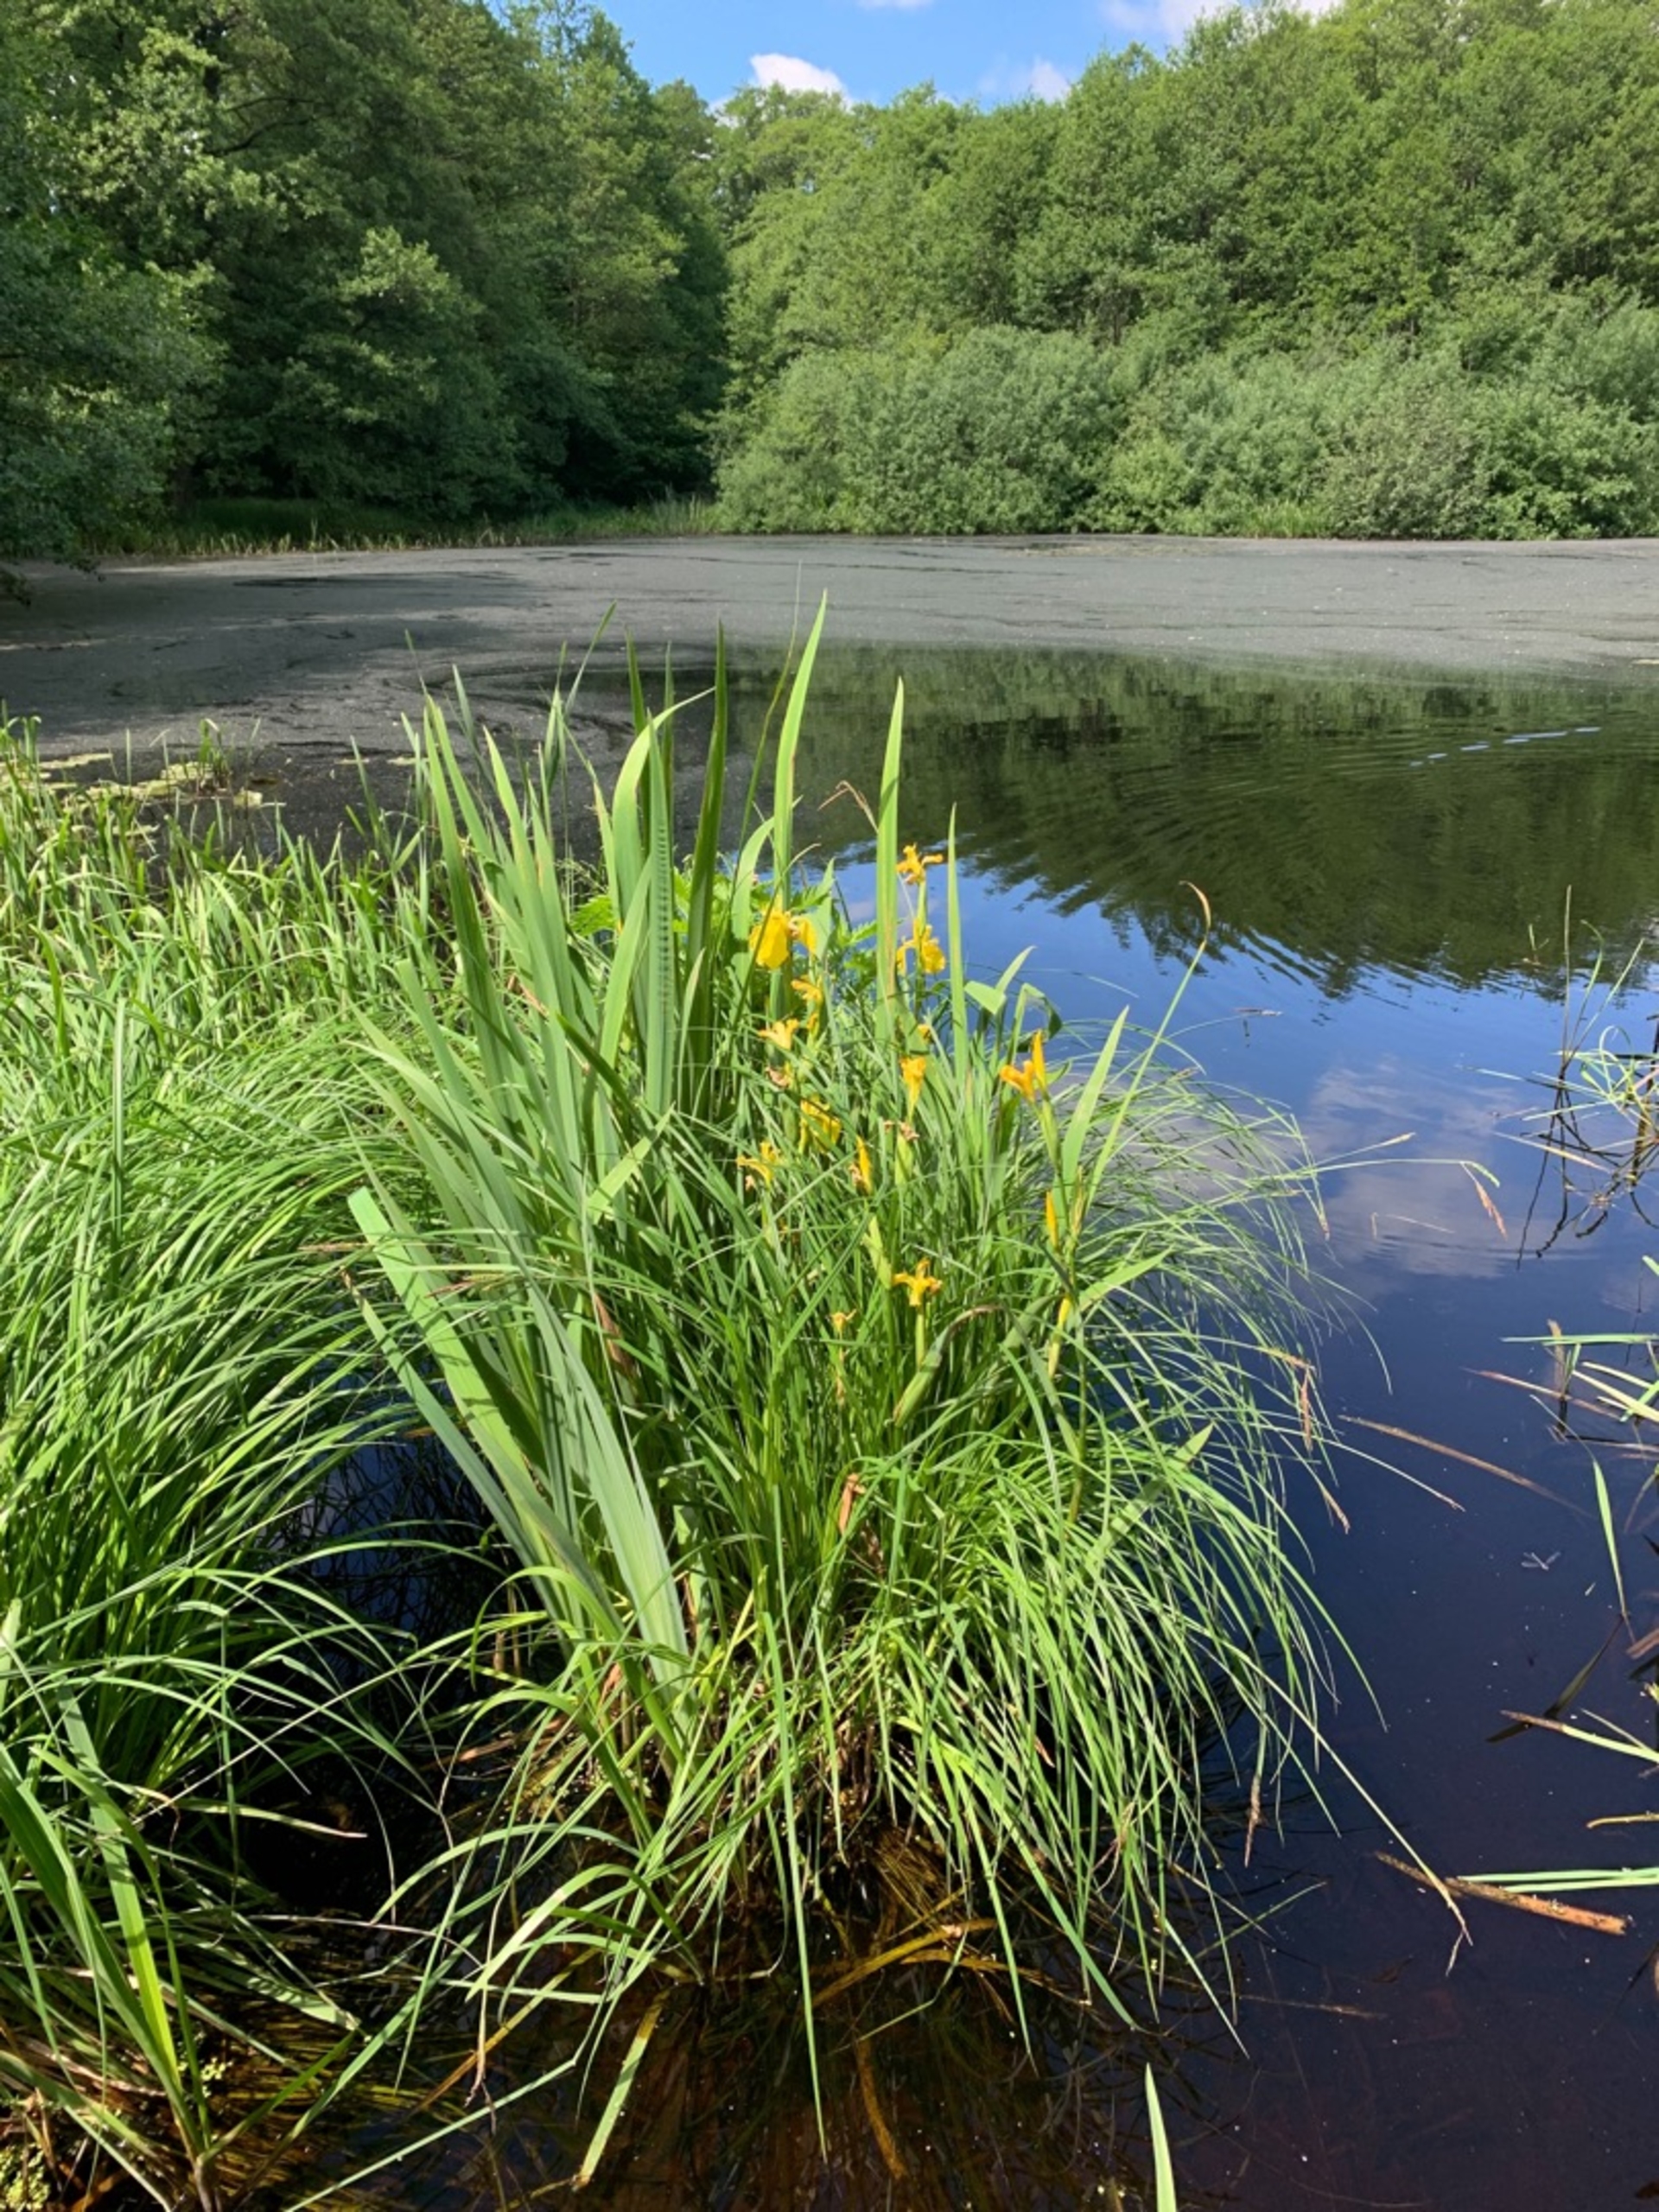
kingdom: Plantae
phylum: Tracheophyta
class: Liliopsida
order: Asparagales
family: Iridaceae
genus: Iris
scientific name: Iris pseudacorus
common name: Gul iris
